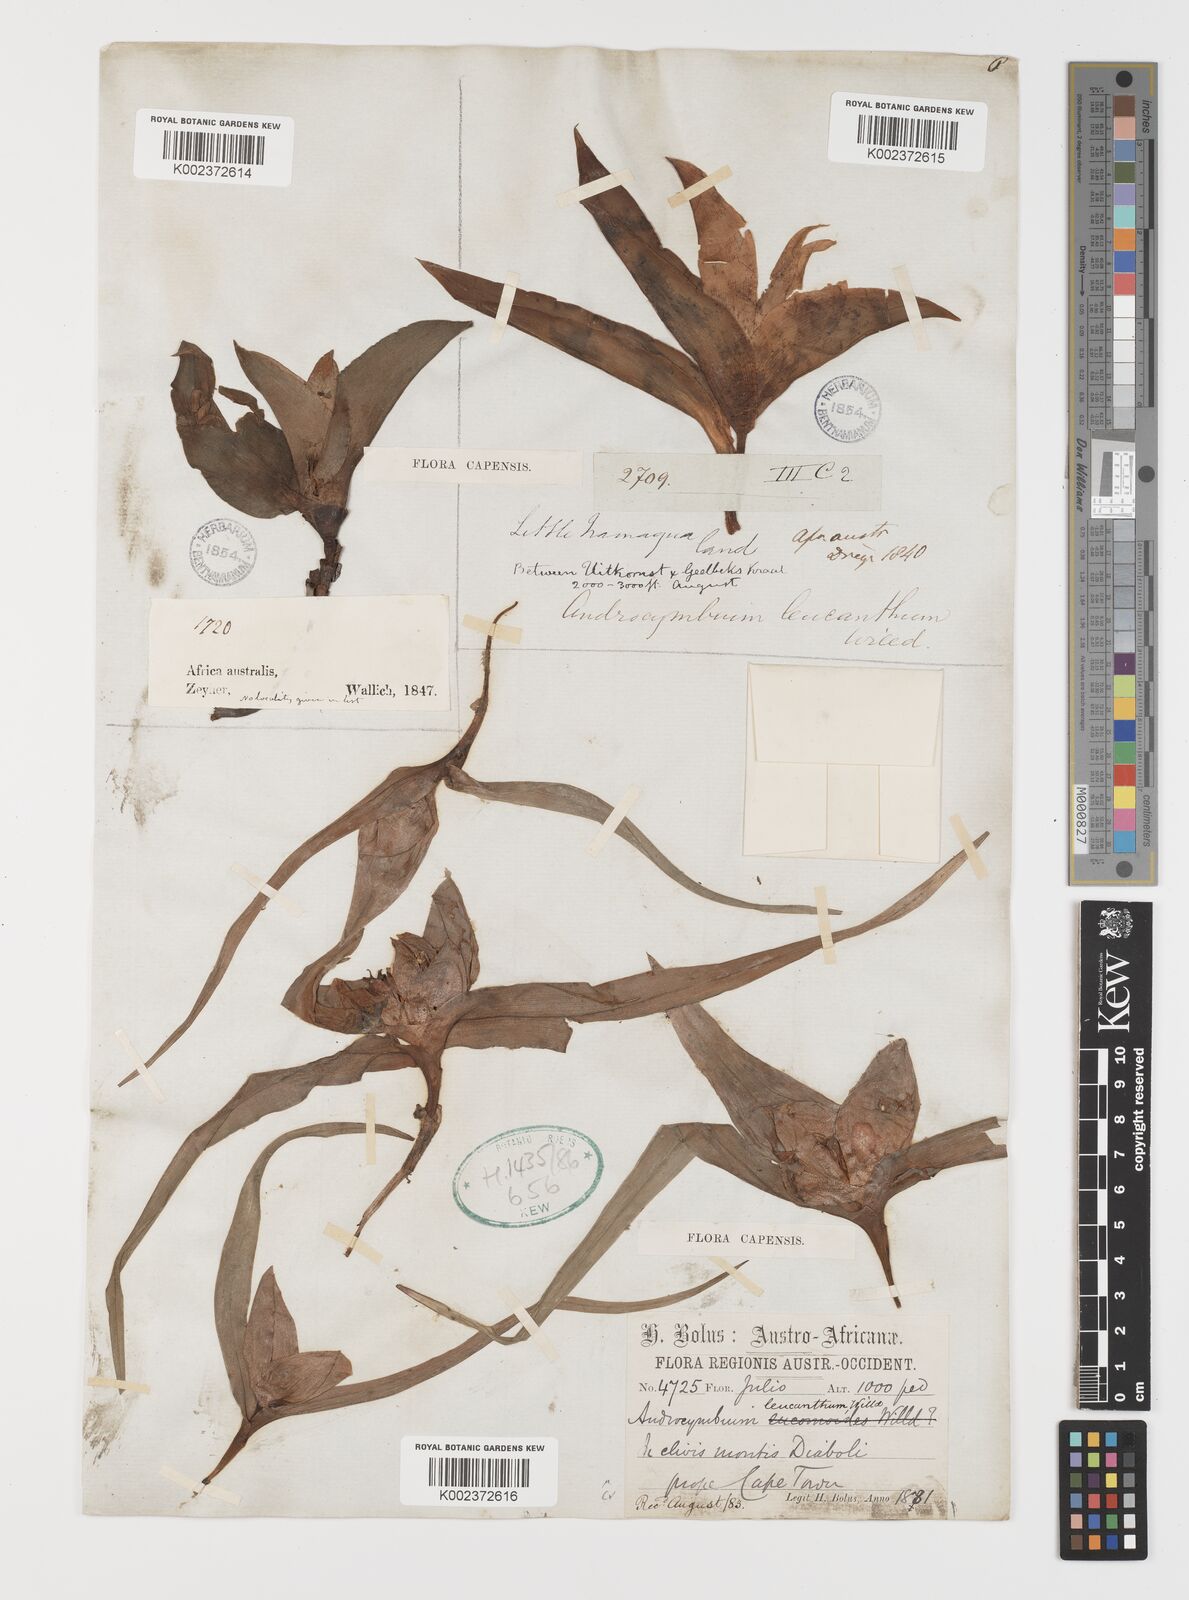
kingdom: Plantae
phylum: Tracheophyta
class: Liliopsida
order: Liliales
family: Colchicaceae
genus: Colchicum
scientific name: Colchicum capense
